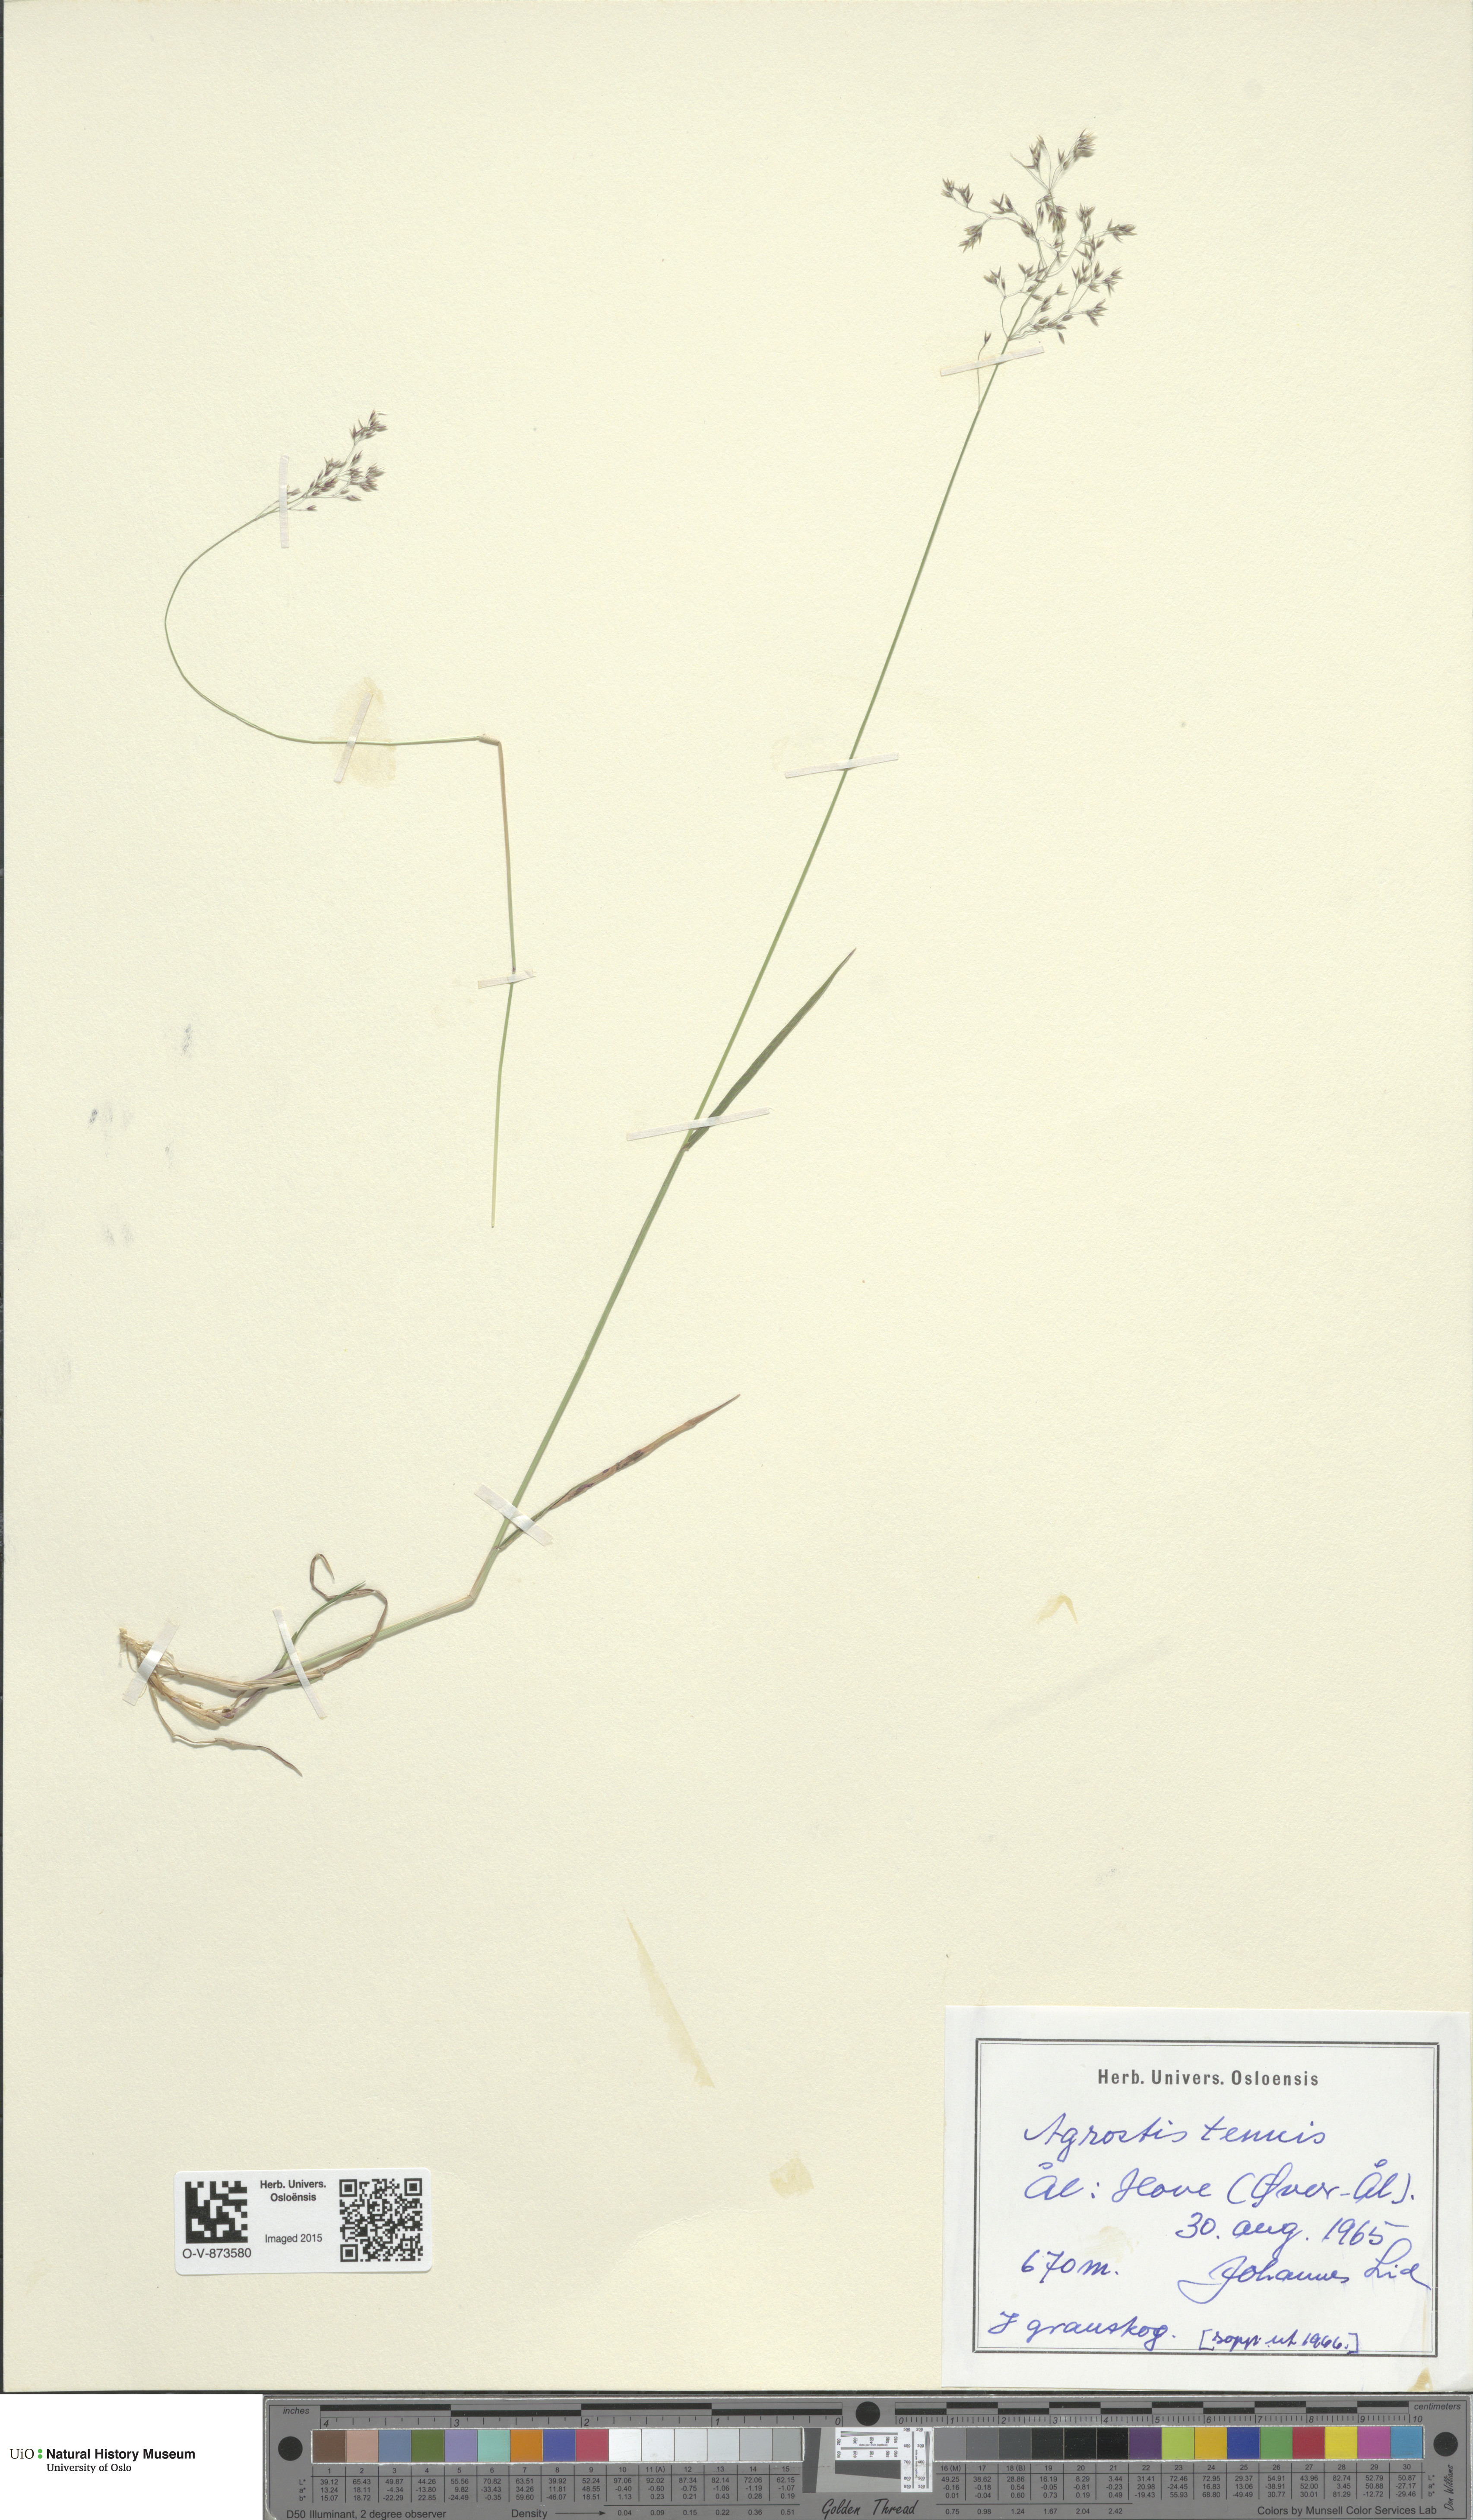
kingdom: Plantae
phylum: Tracheophyta
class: Liliopsida
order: Poales
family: Poaceae
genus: Agrostis
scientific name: Agrostis capillaris
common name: Colonial bentgrass
